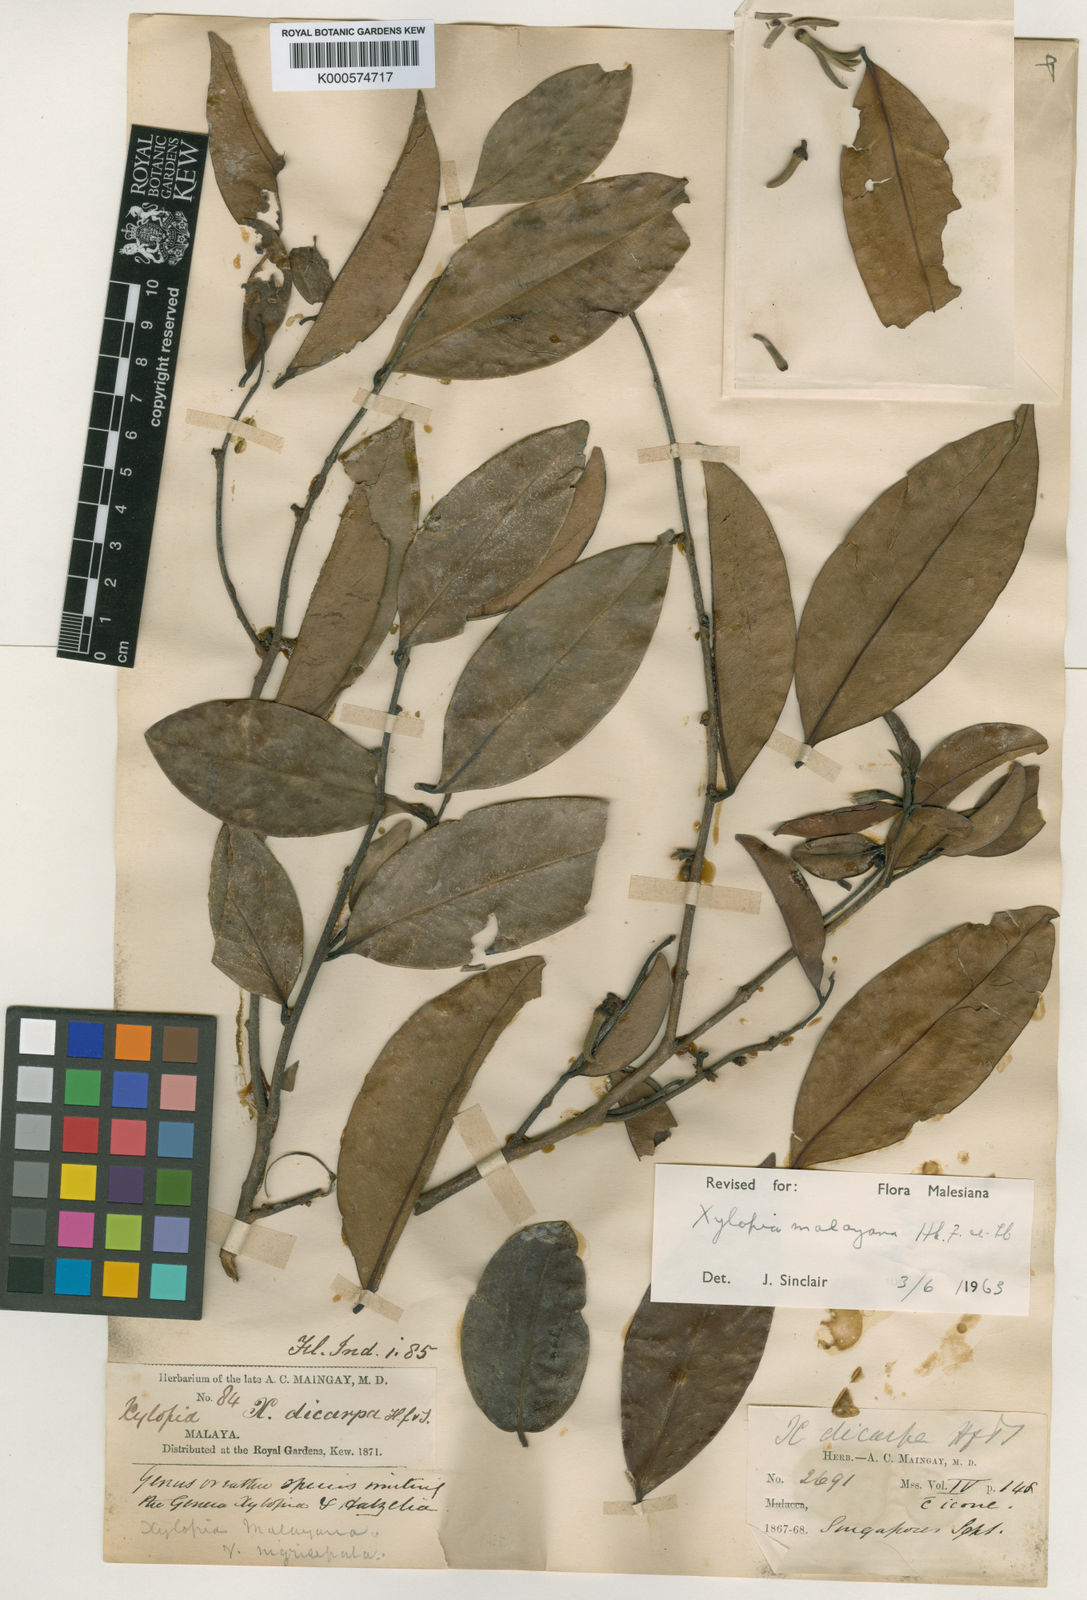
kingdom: Plantae
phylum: Tracheophyta
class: Magnoliopsida
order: Magnoliales
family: Annonaceae
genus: Xylopia
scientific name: Xylopia malayana
